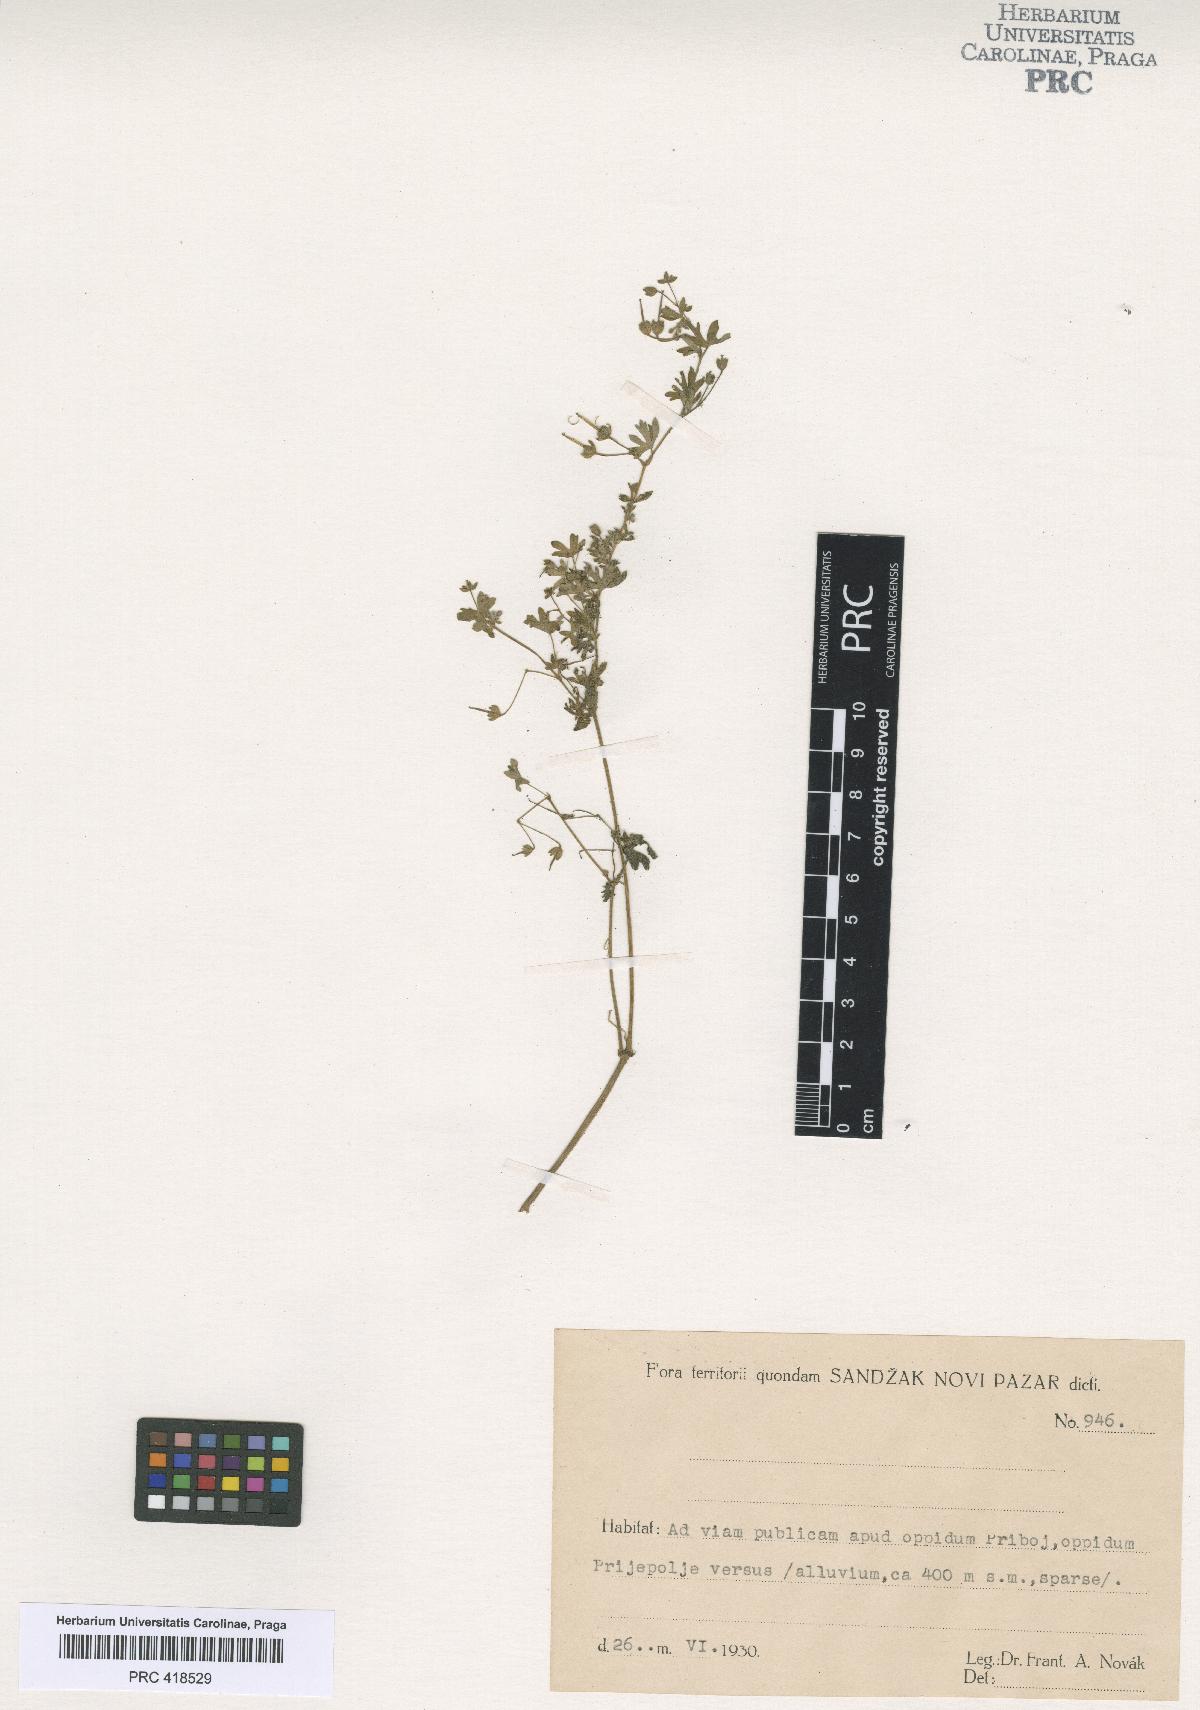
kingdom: Plantae
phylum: Tracheophyta
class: Magnoliopsida
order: Geraniales
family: Geraniaceae
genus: Geranium
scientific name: Geranium pusillum
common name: Small geranium
